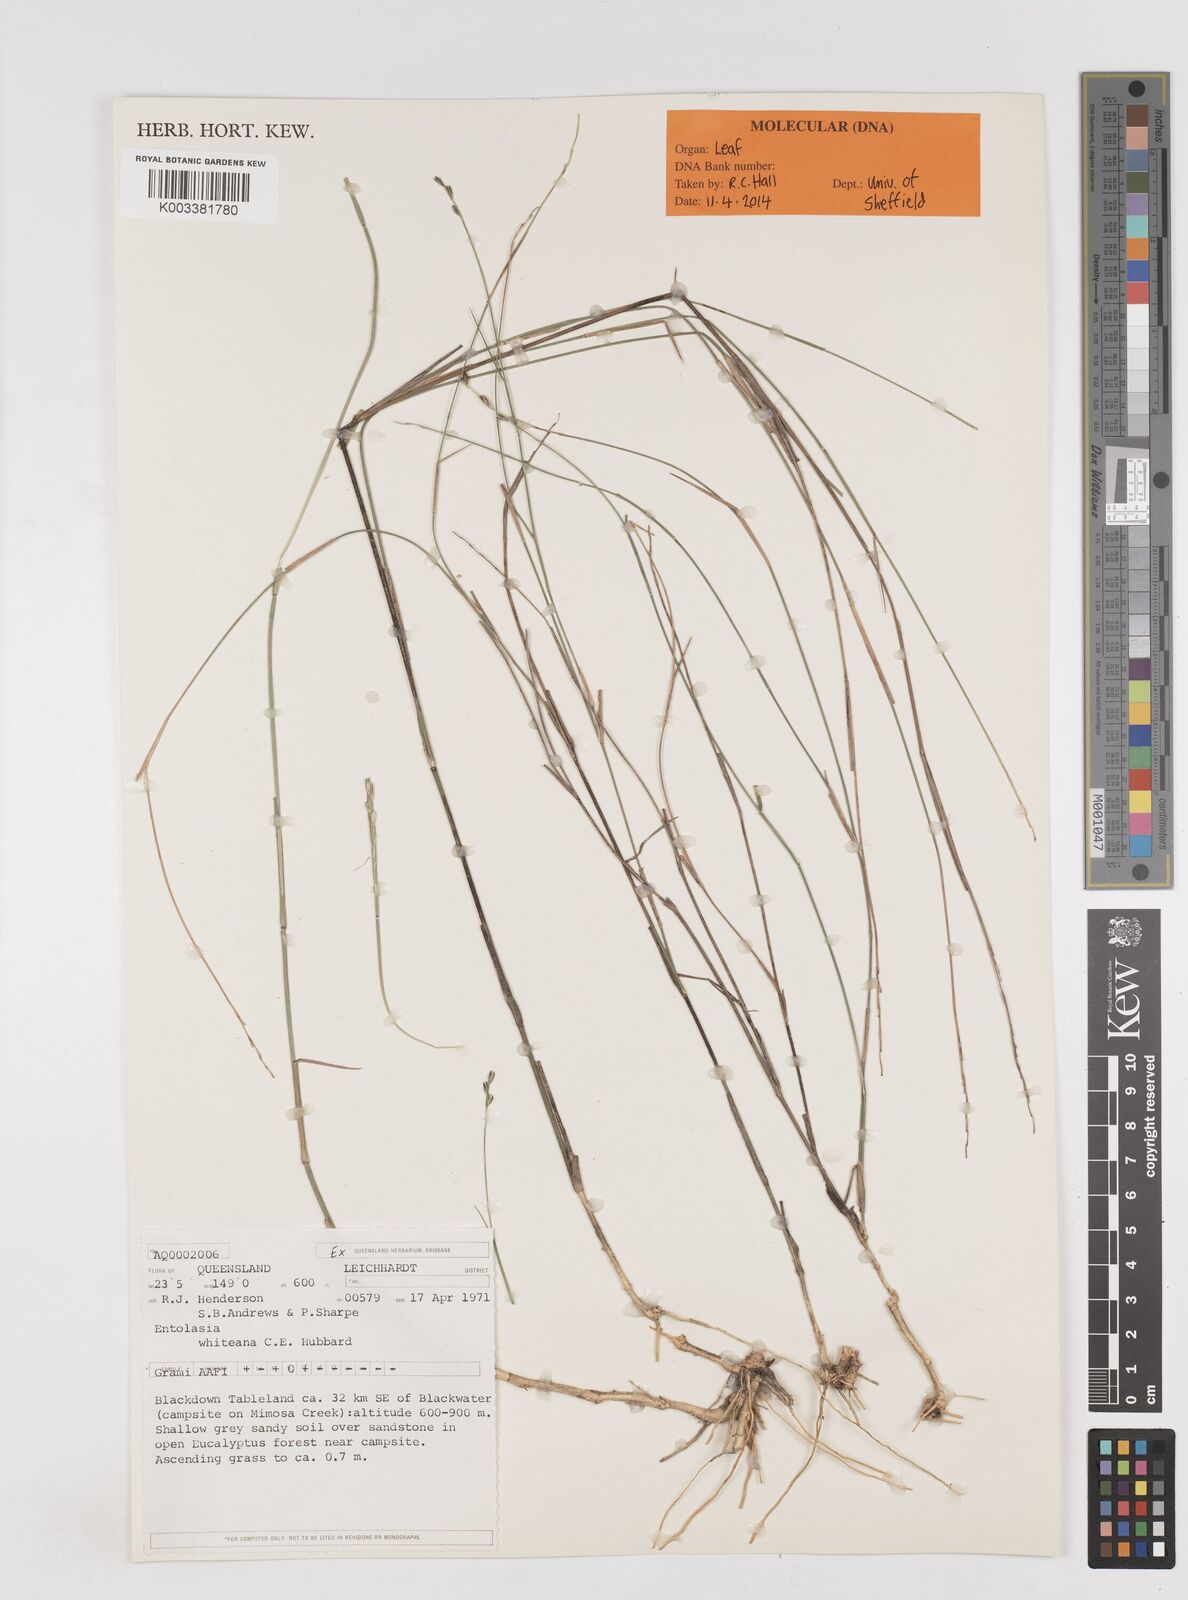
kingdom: Plantae
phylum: Tracheophyta
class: Liliopsida
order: Poales
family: Poaceae
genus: Entolasia
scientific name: Entolasia whiteana
